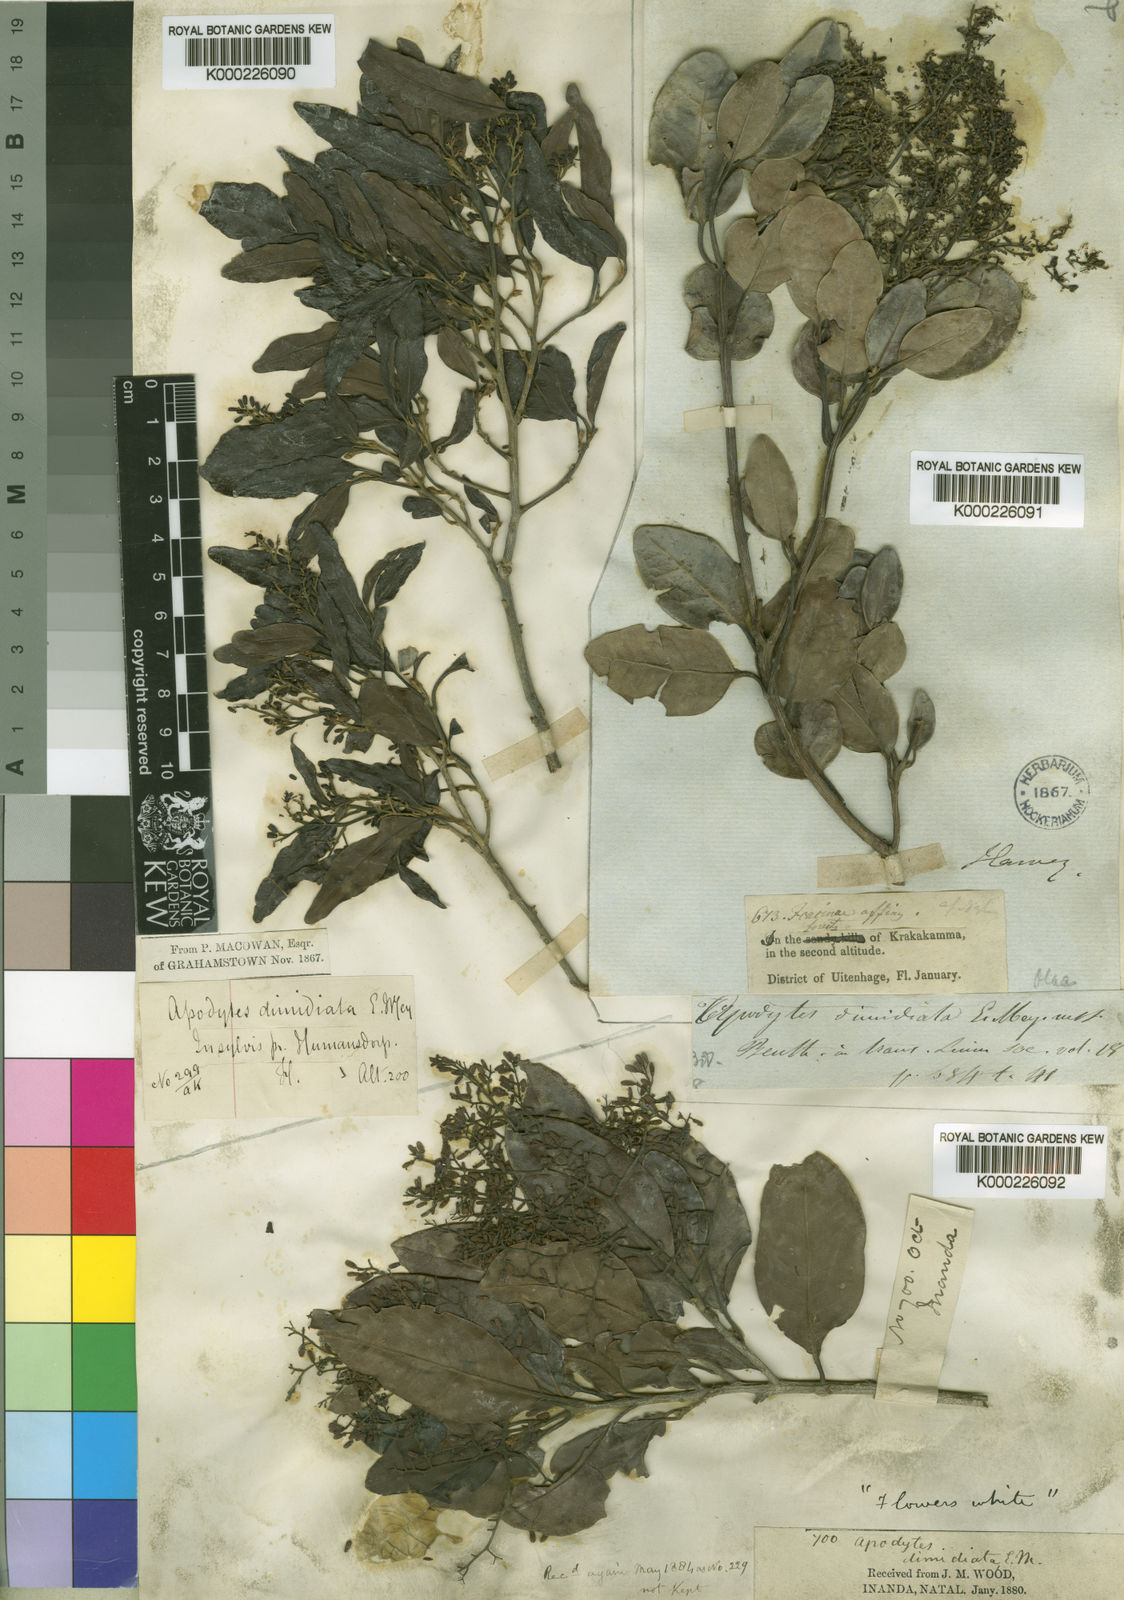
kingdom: Plantae
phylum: Tracheophyta
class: Magnoliopsida
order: Metteniusales
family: Metteniusaceae
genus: Apodytes
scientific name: Apodytes dimidiata
